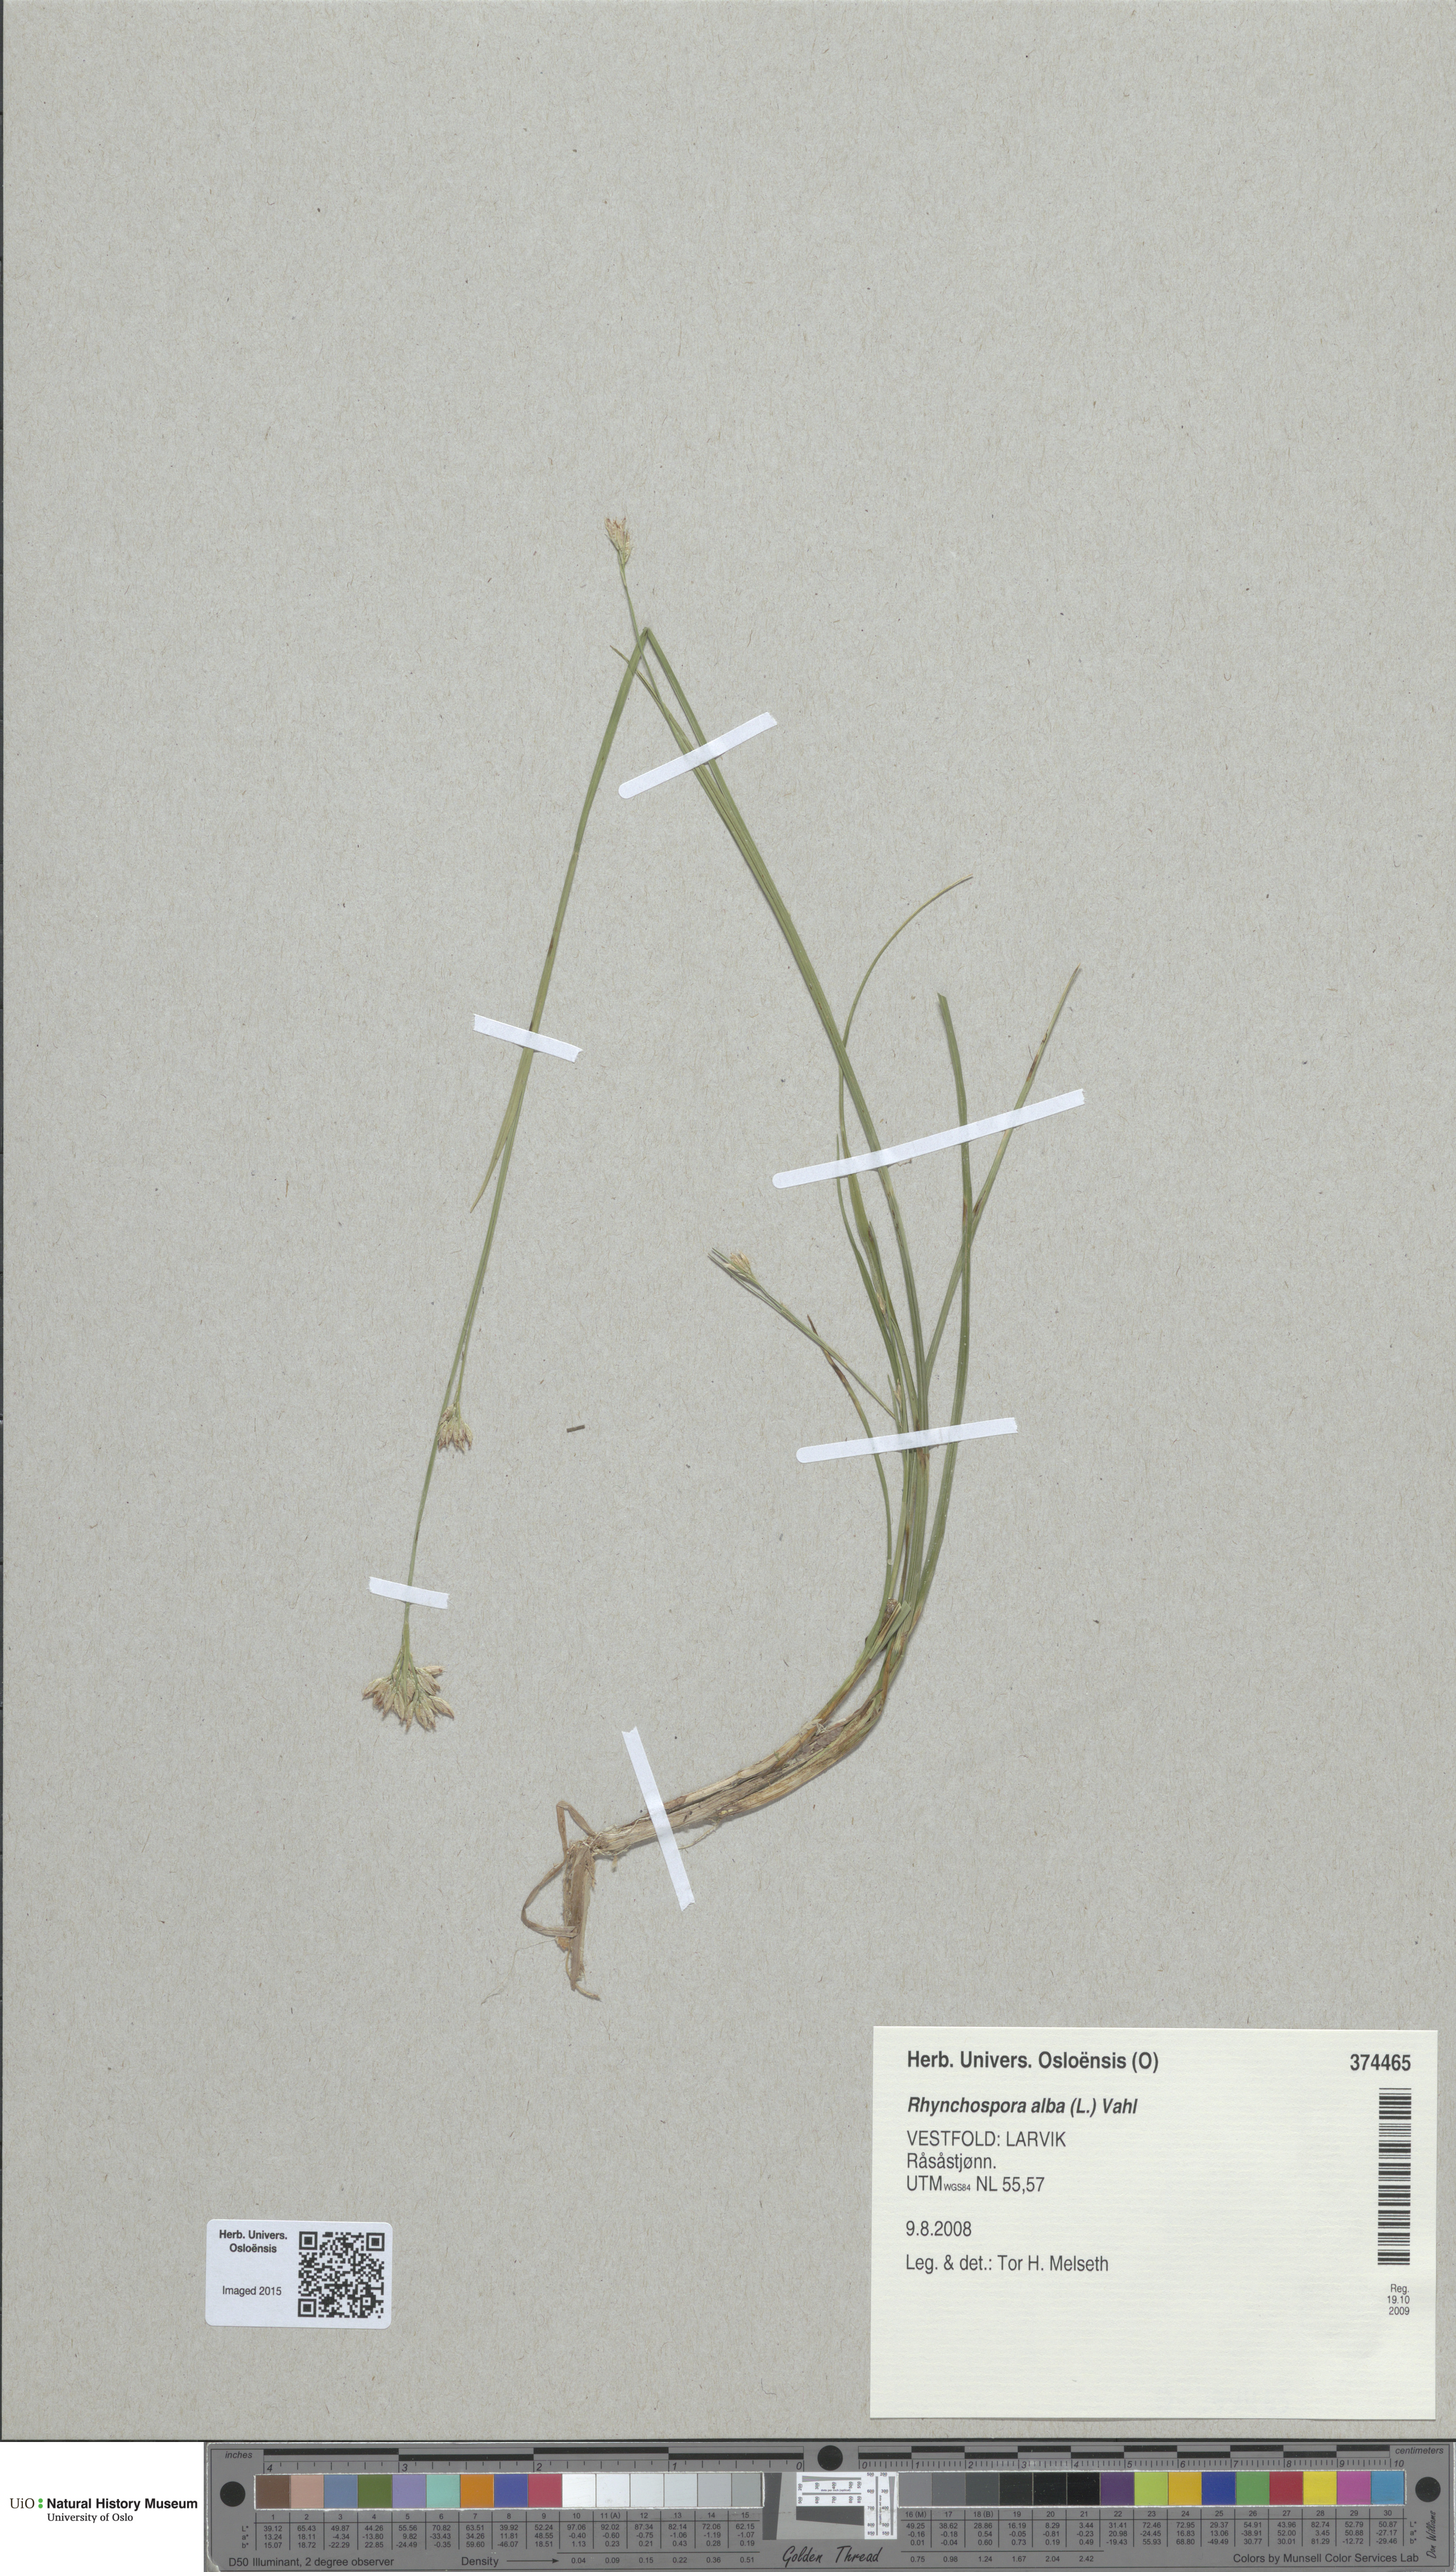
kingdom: Plantae
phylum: Tracheophyta
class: Liliopsida
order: Poales
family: Cyperaceae
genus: Rhynchospora
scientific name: Rhynchospora alba
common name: White beak-sedge
